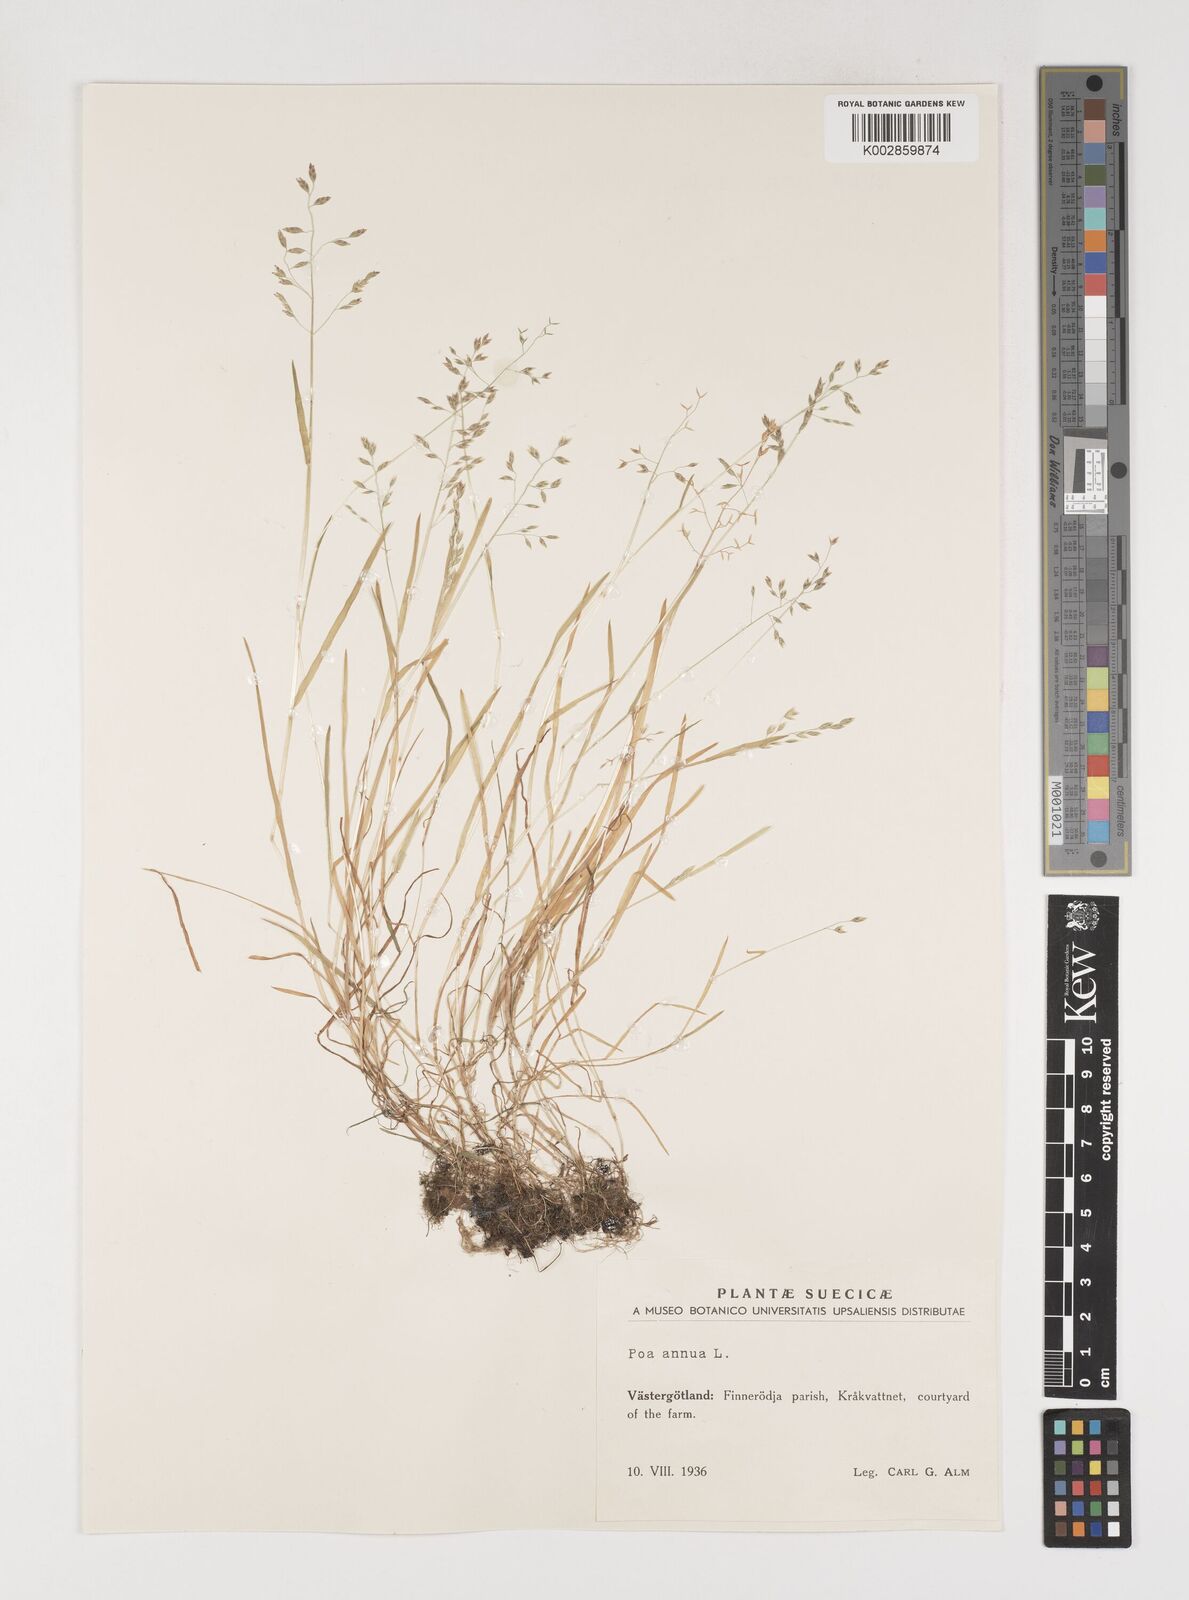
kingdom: Plantae
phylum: Tracheophyta
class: Liliopsida
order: Poales
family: Poaceae
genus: Poa
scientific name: Poa annua
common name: Annual bluegrass
